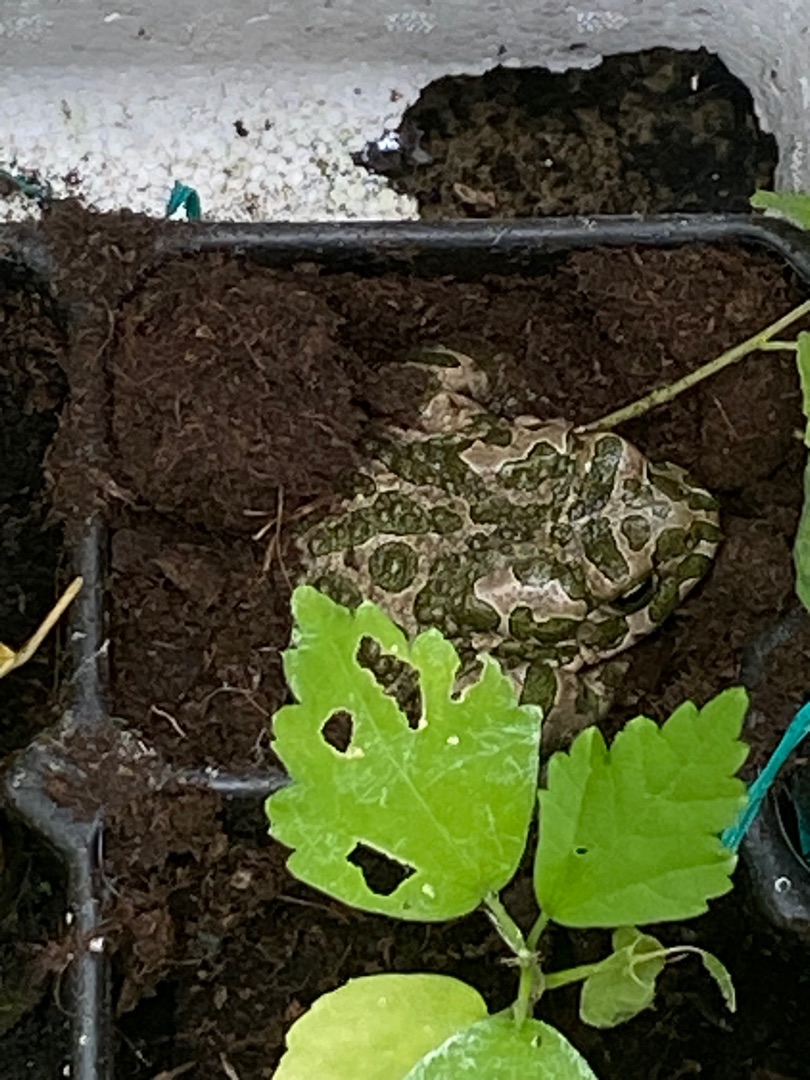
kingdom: Animalia
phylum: Chordata
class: Amphibia
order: Anura
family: Bufonidae
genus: Bufotes
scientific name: Bufotes viridis
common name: Grønbroget tudse
